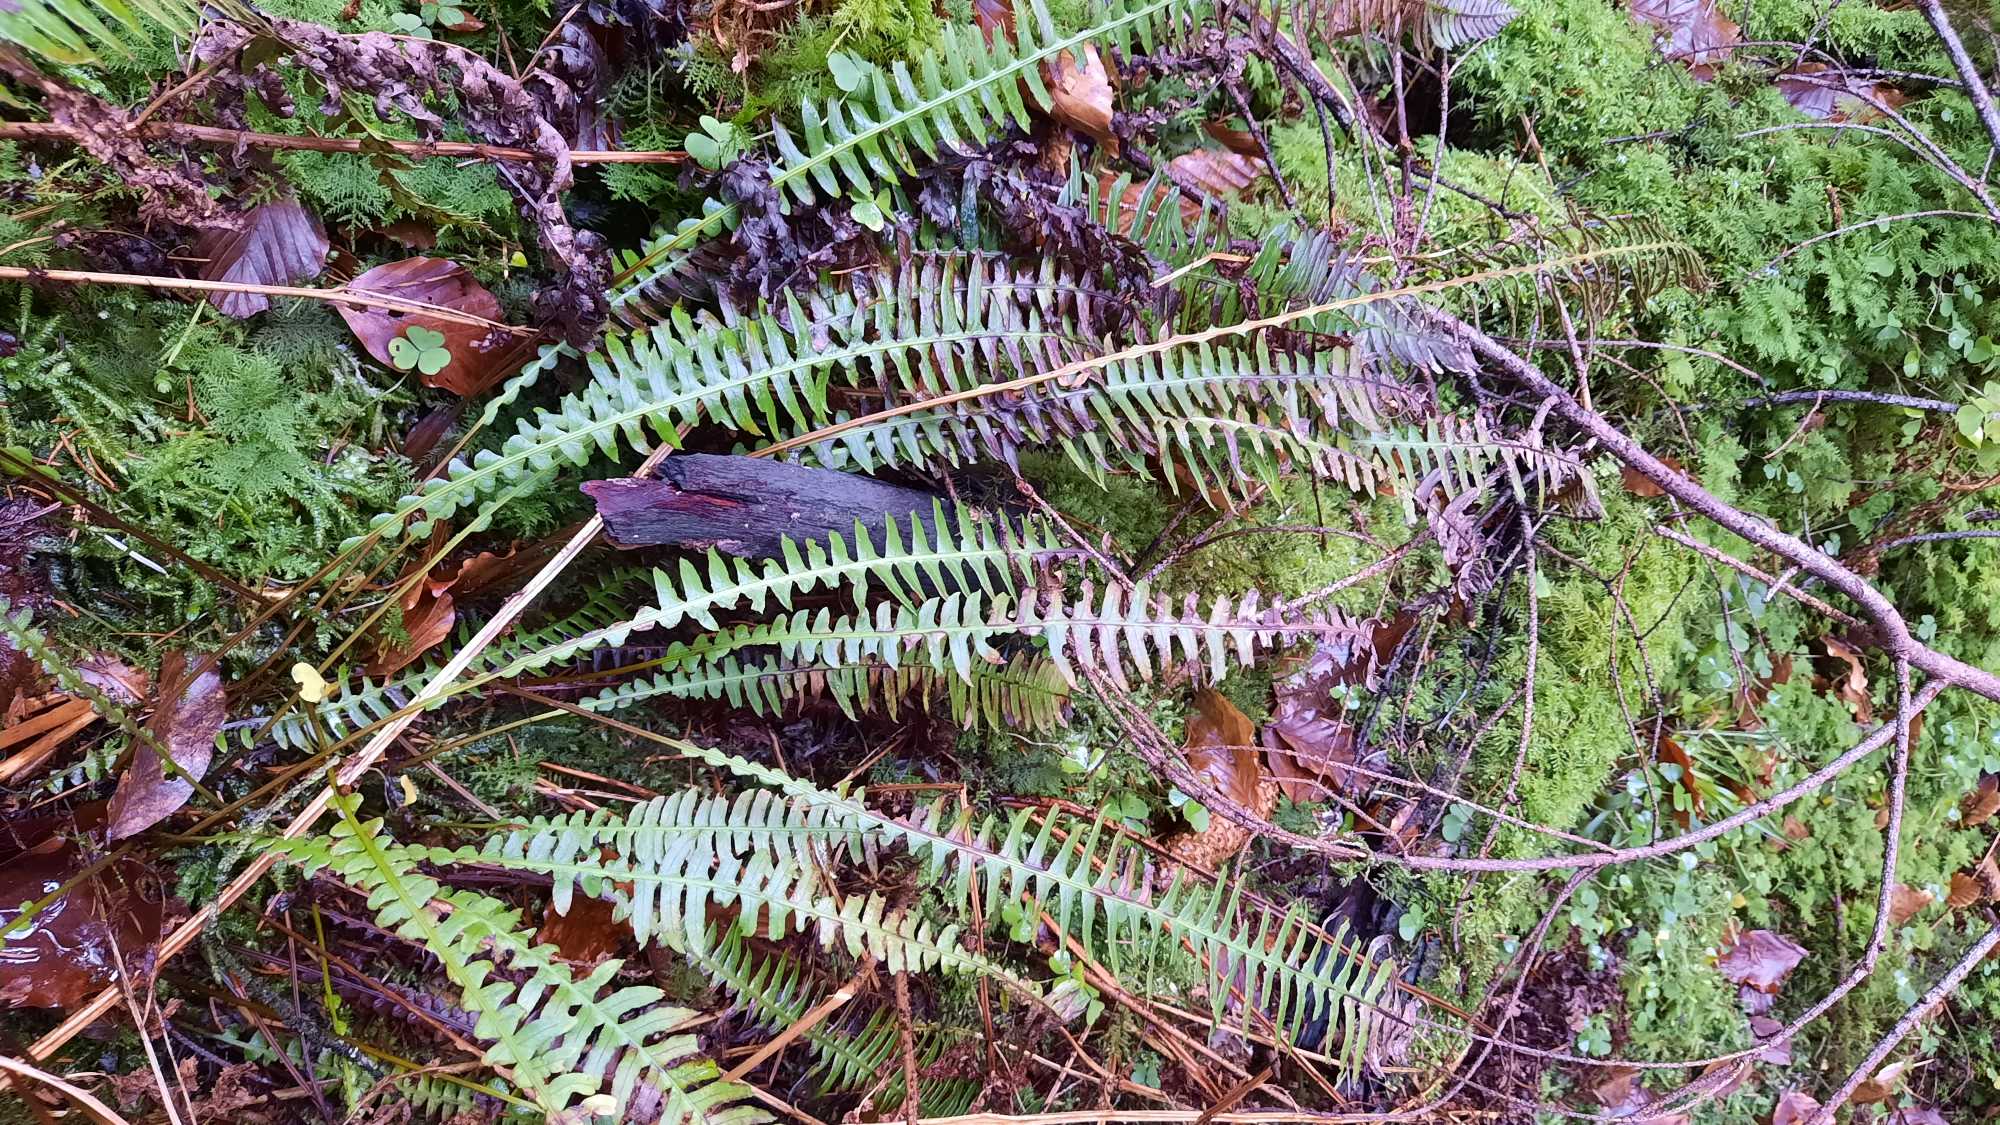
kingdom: Plantae
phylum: Tracheophyta
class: Polypodiopsida
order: Polypodiales
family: Blechnaceae
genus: Struthiopteris
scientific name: Struthiopteris spicant
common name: Kambregne
